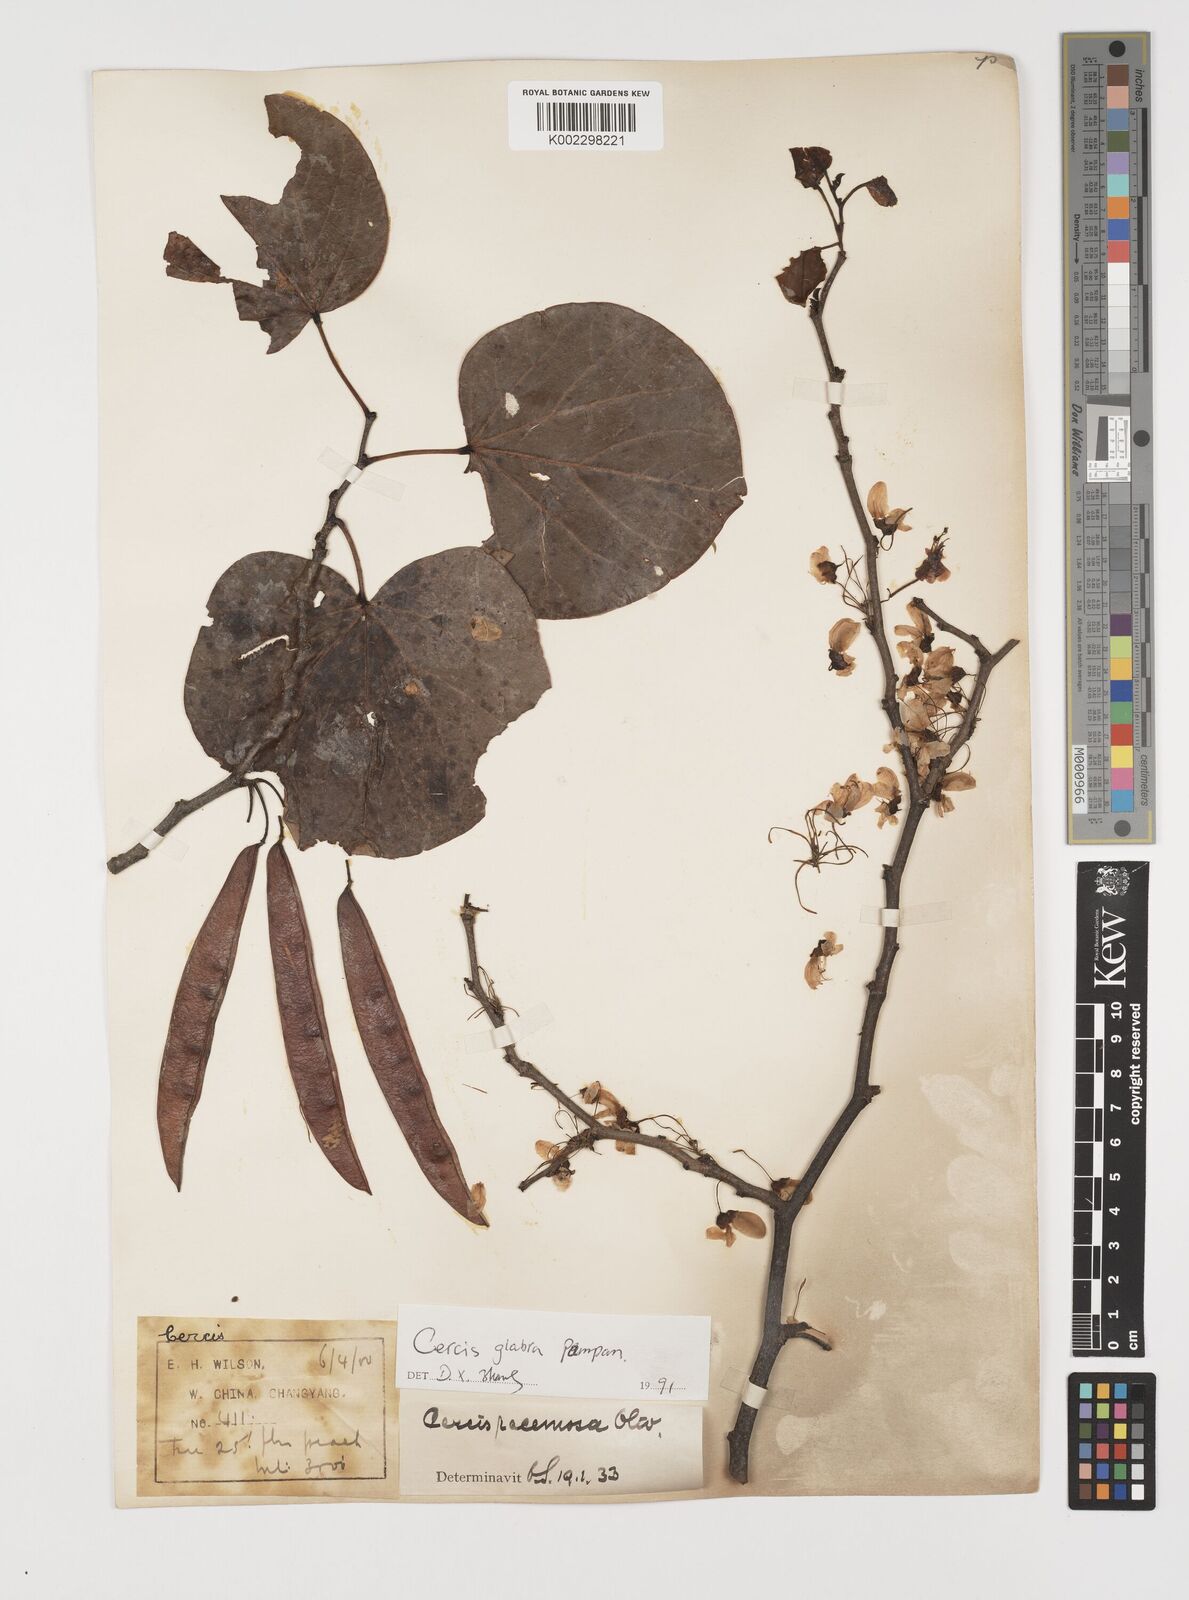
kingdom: Plantae
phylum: Tracheophyta
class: Magnoliopsida
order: Fabales
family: Fabaceae
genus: Cercis
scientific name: Cercis glabra
